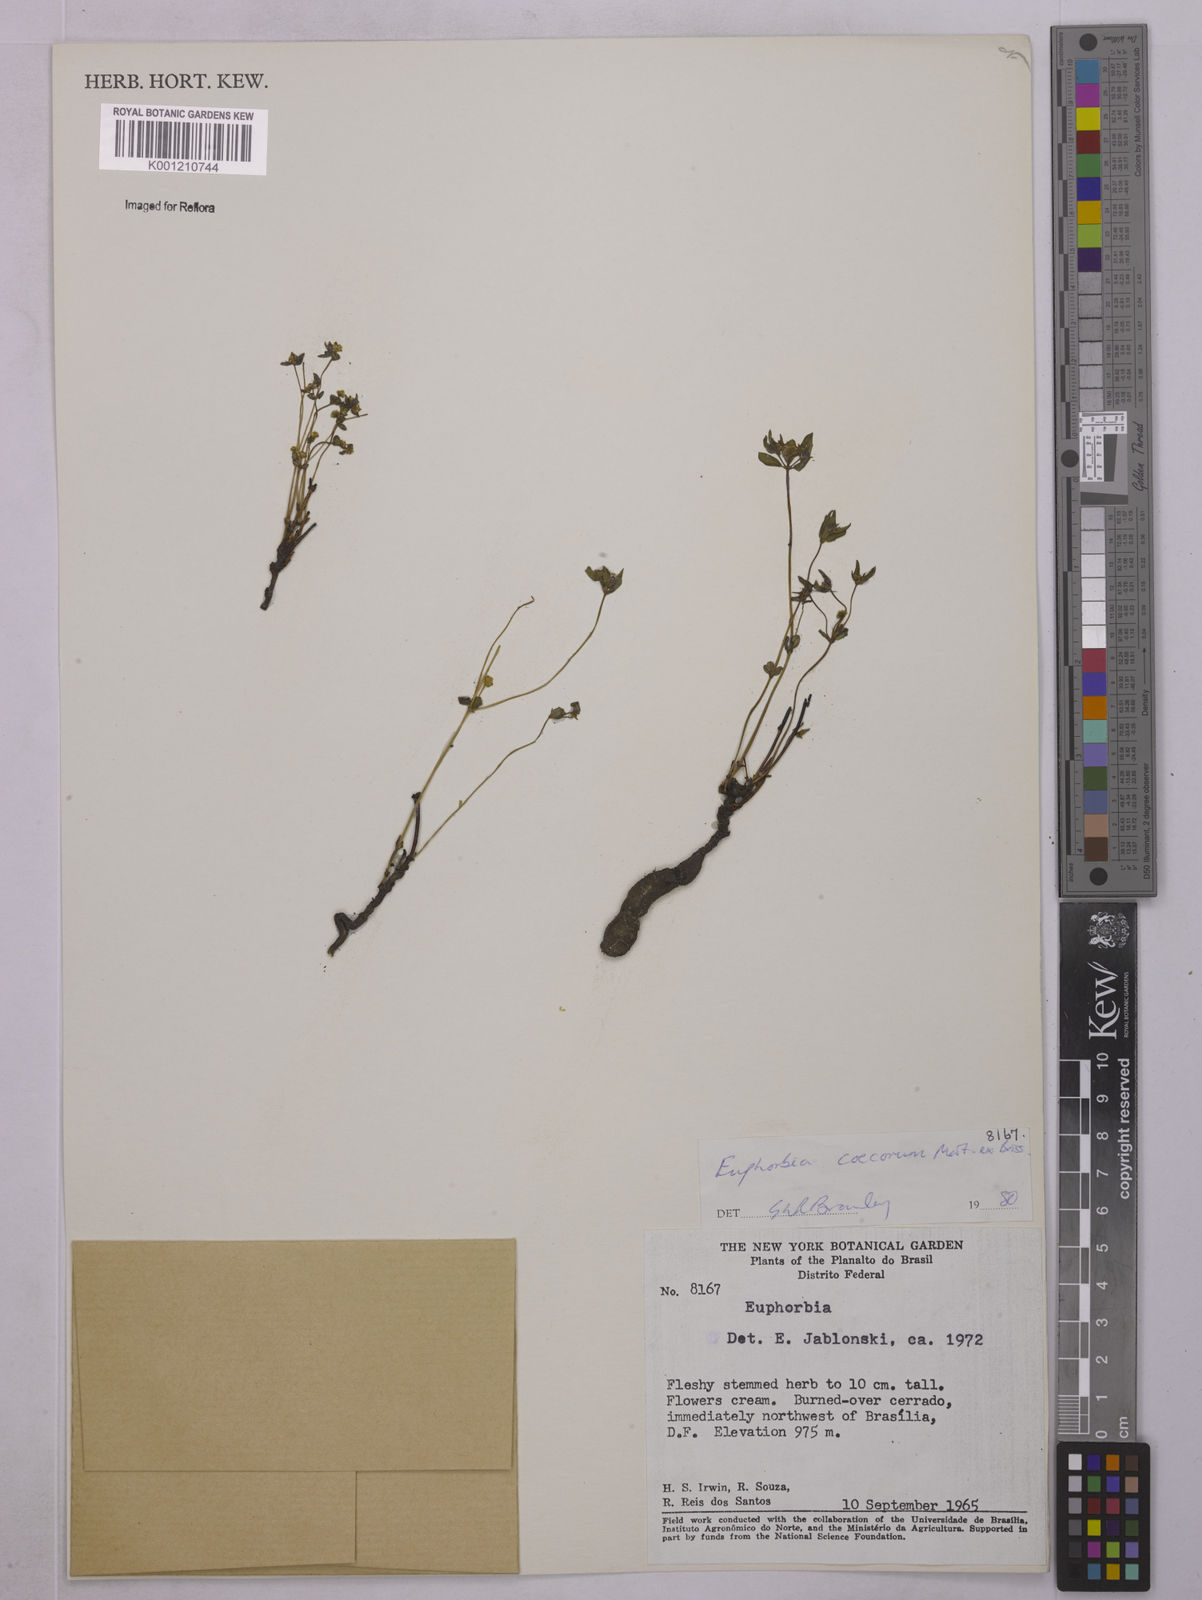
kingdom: Plantae
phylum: Tracheophyta
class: Magnoliopsida
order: Malpighiales
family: Euphorbiaceae
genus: Euphorbia
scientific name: Euphorbia potentilloides
